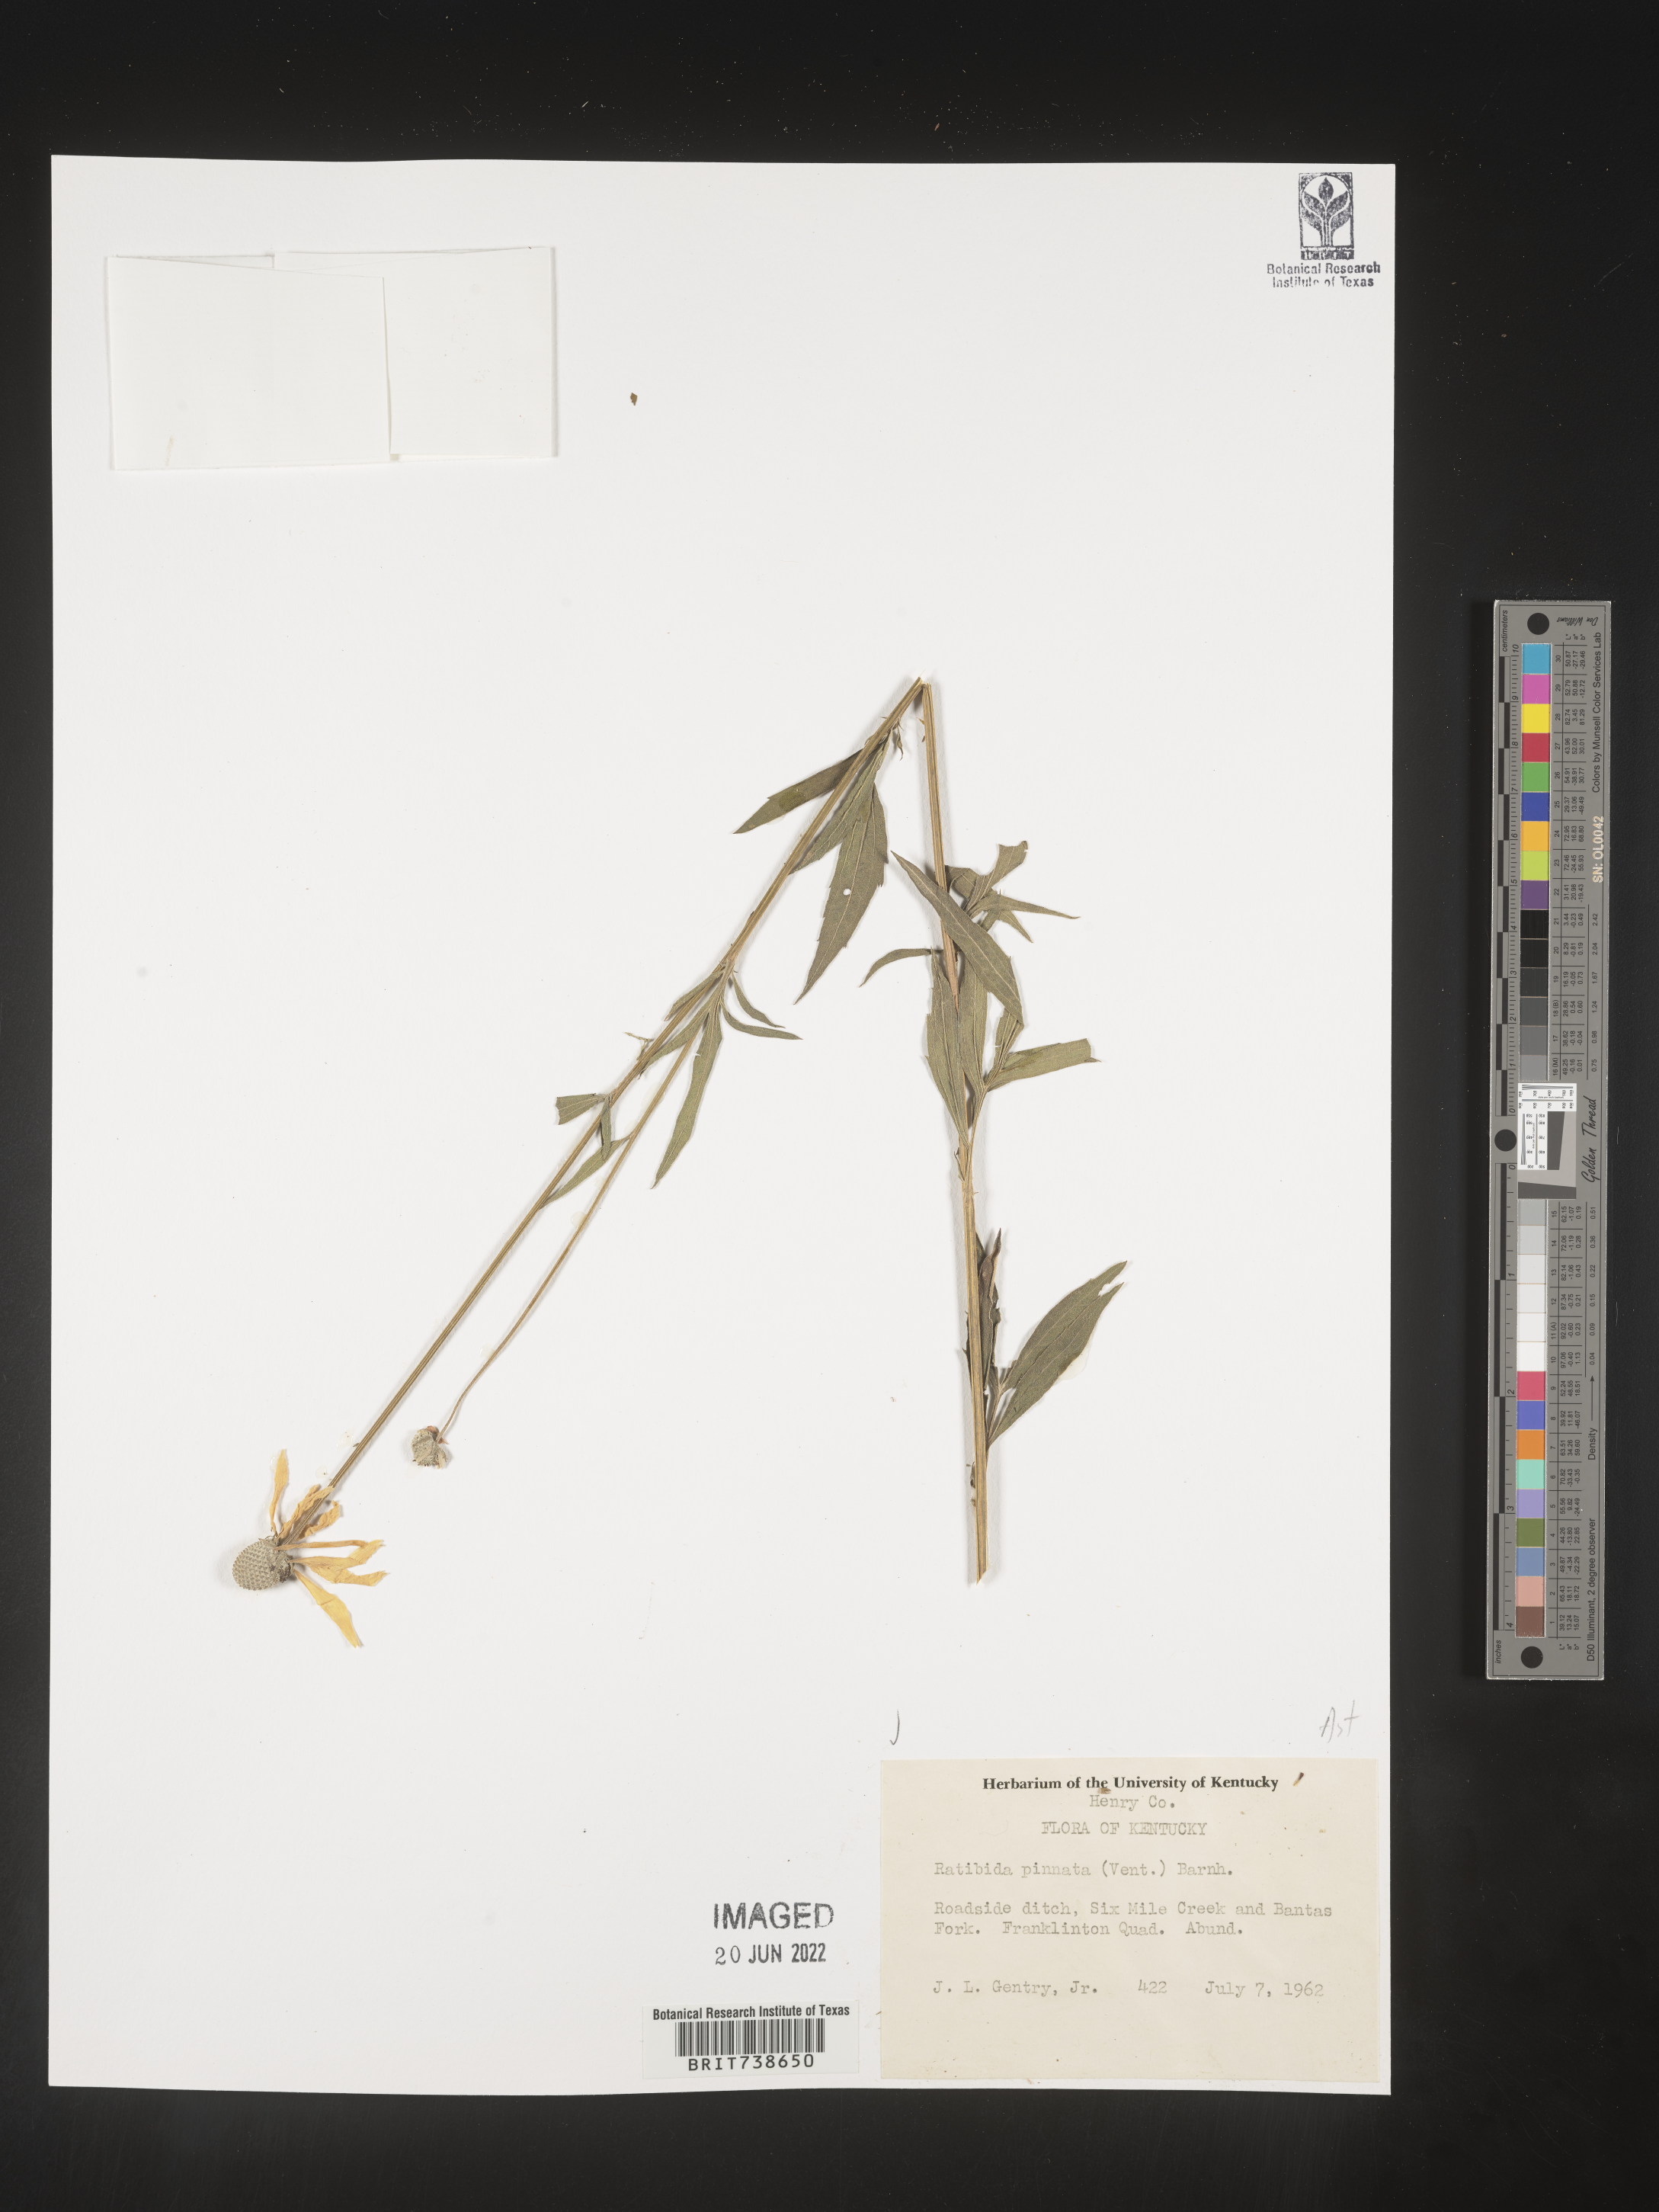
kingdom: Plantae
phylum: Tracheophyta
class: Magnoliopsida
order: Asterales
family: Asteraceae
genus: Ratibida
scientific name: Ratibida pinnata
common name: Drooping prairie-coneflower
